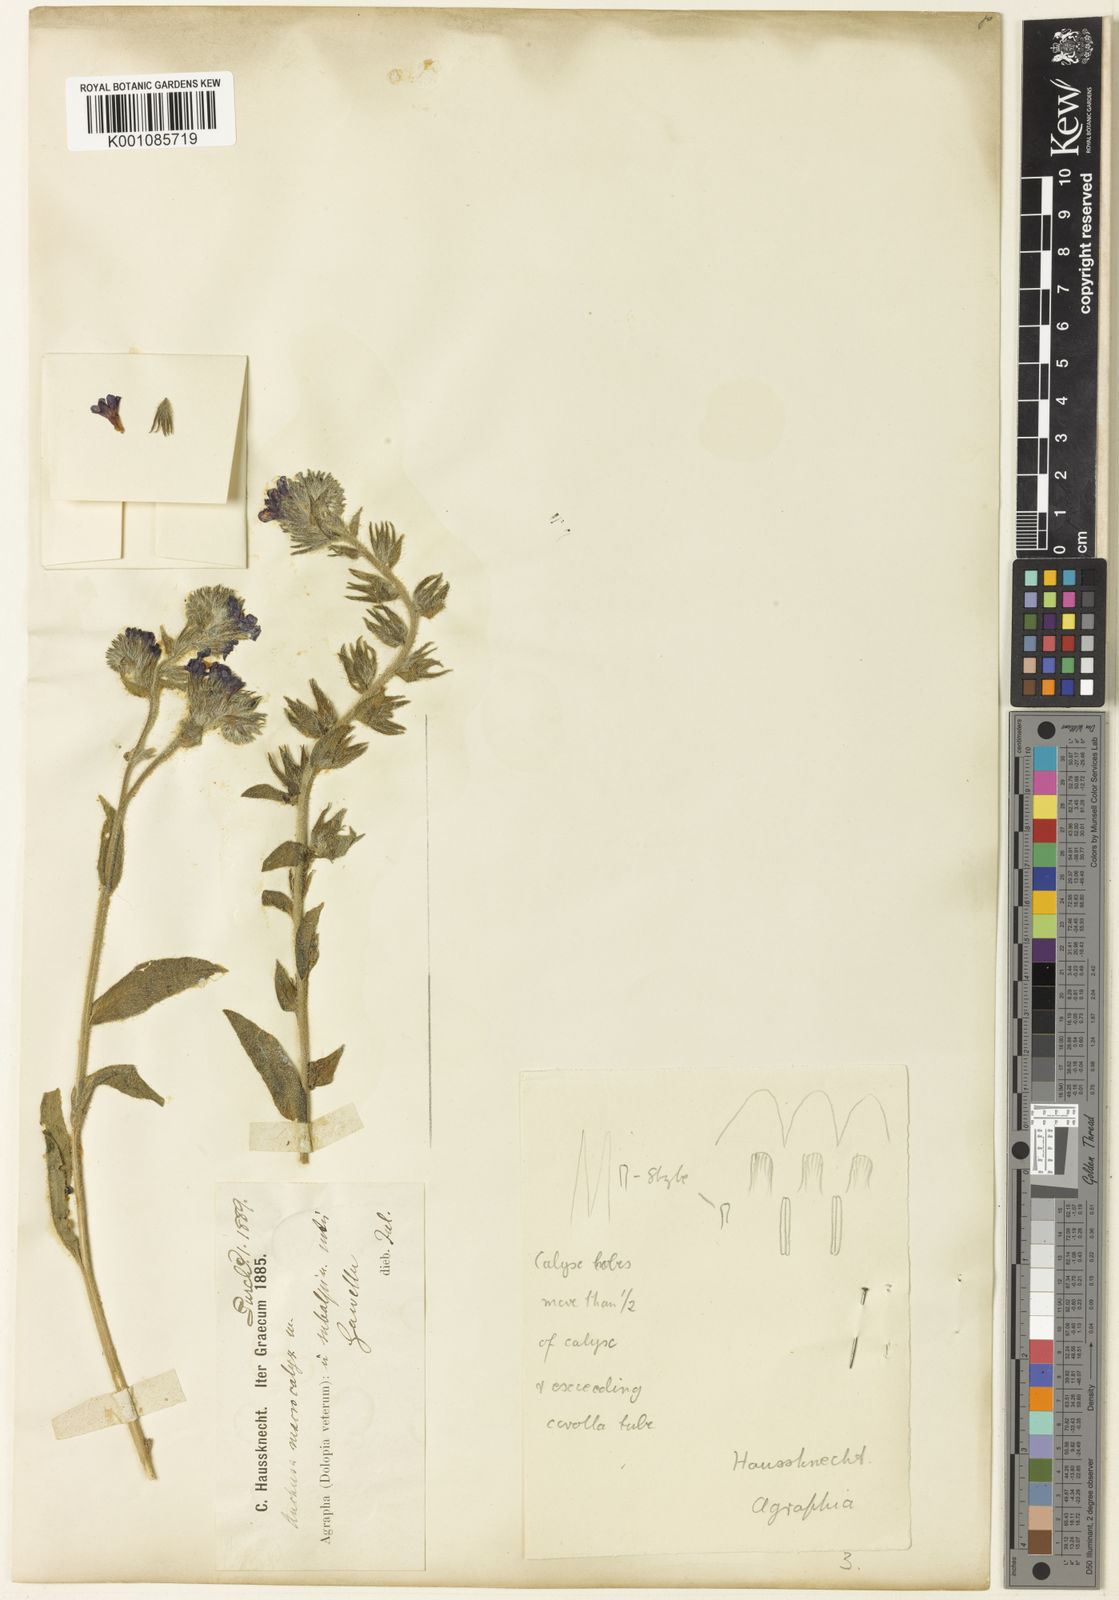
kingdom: Plantae
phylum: Tracheophyta
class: Magnoliopsida
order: Boraginales
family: Boraginaceae
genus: Anchusa
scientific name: Anchusa officinalis
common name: Alkanet
